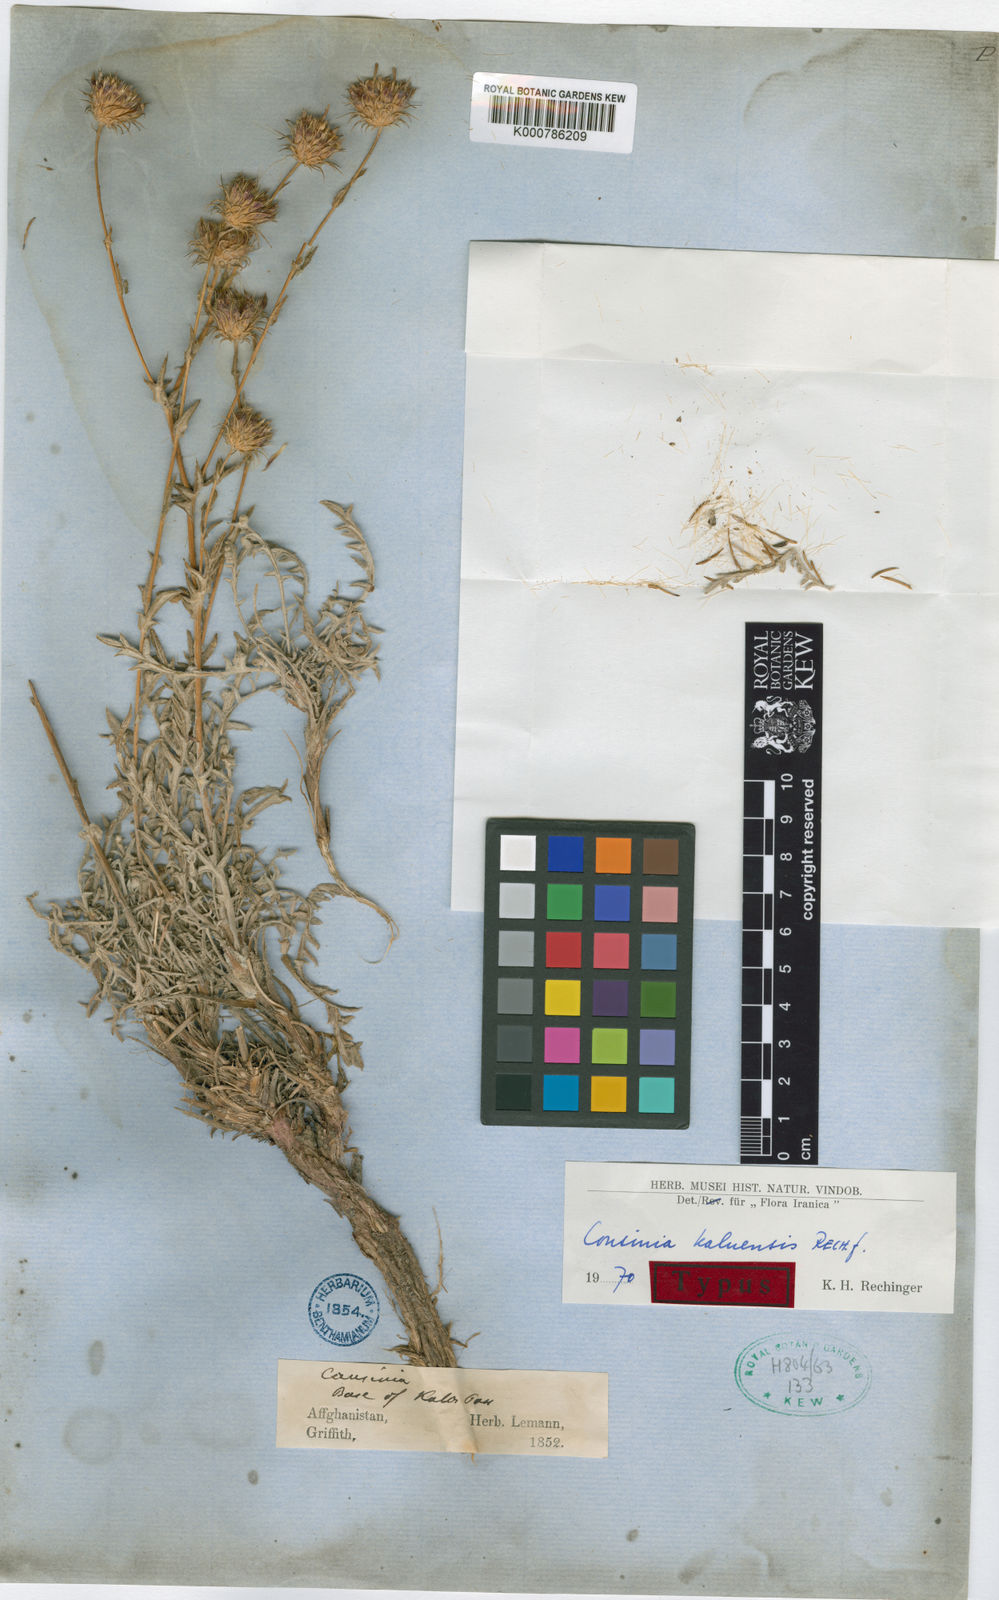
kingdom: Plantae
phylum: Tracheophyta
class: Magnoliopsida
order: Asterales
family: Asteraceae
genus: Cousinia
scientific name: Cousinia kaluensis
